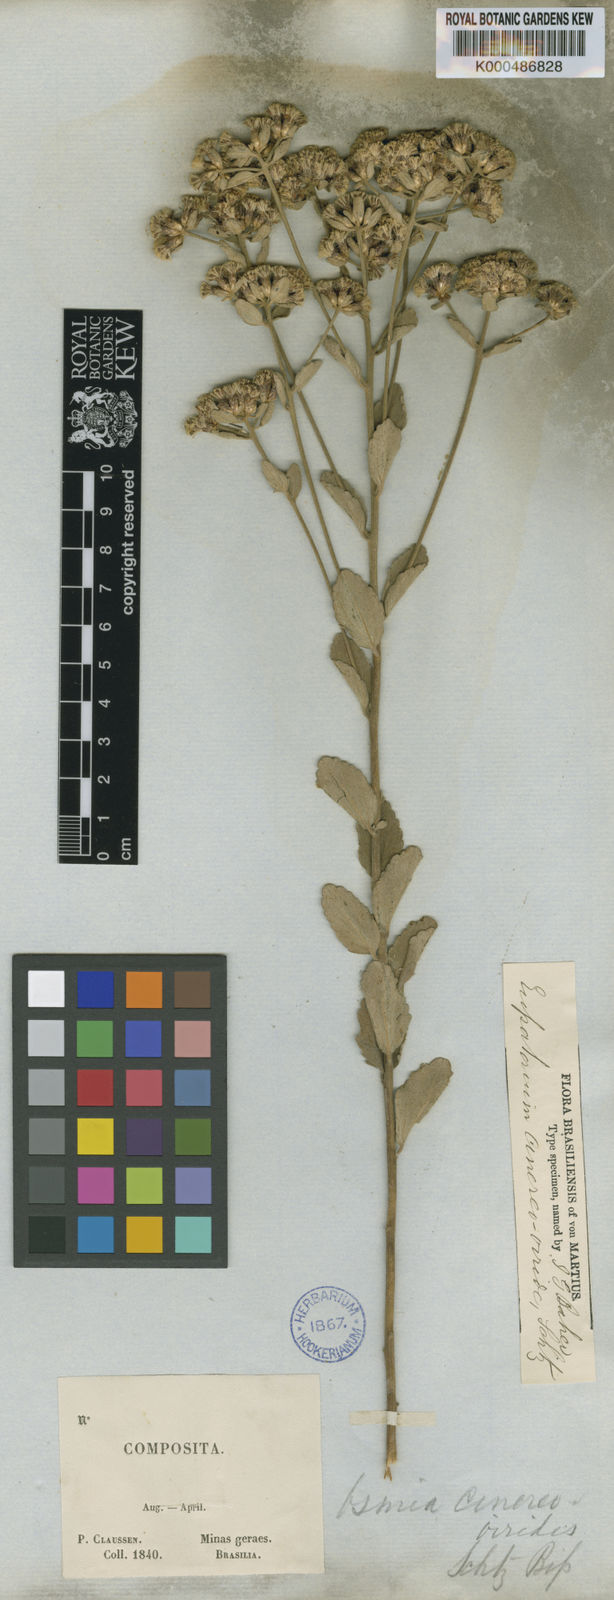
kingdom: Plantae
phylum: Tracheophyta
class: Magnoliopsida
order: Asterales
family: Asteraceae
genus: Chromolaena
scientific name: Chromolaena cinereoviridis
